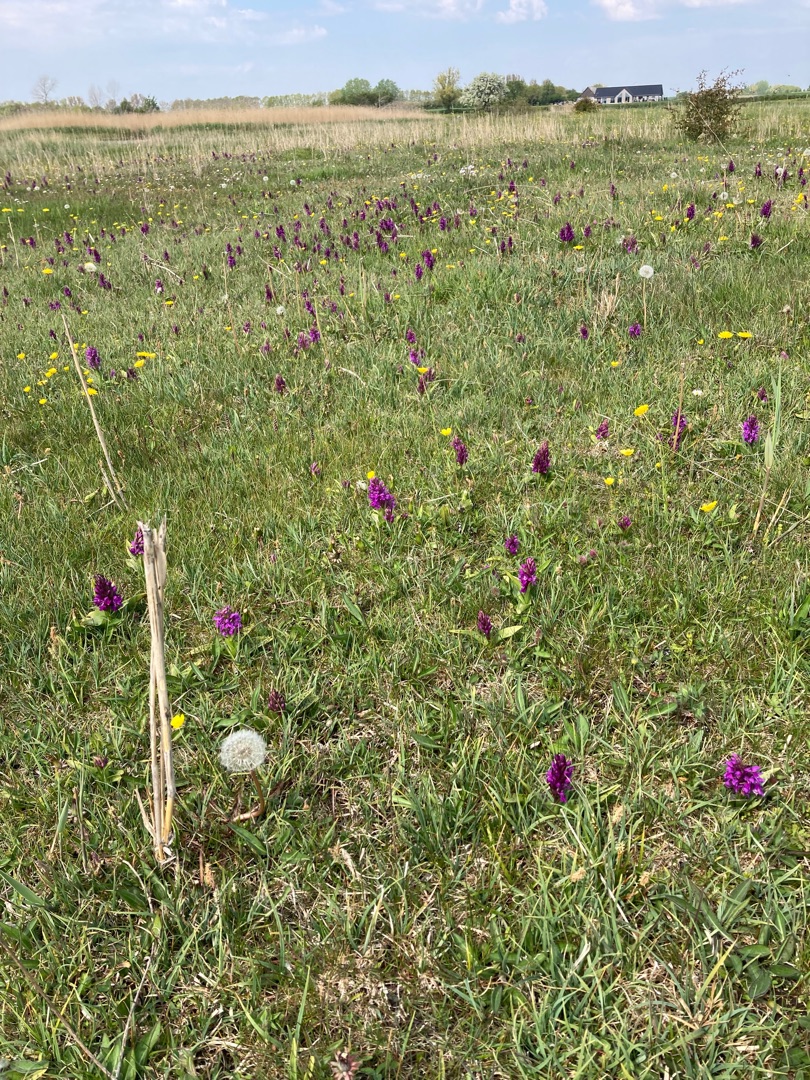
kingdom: Plantae
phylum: Tracheophyta
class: Liliopsida
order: Asparagales
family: Orchidaceae
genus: Dactylorhiza
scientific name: Dactylorhiza majalis
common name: Maj-gøgeurt
